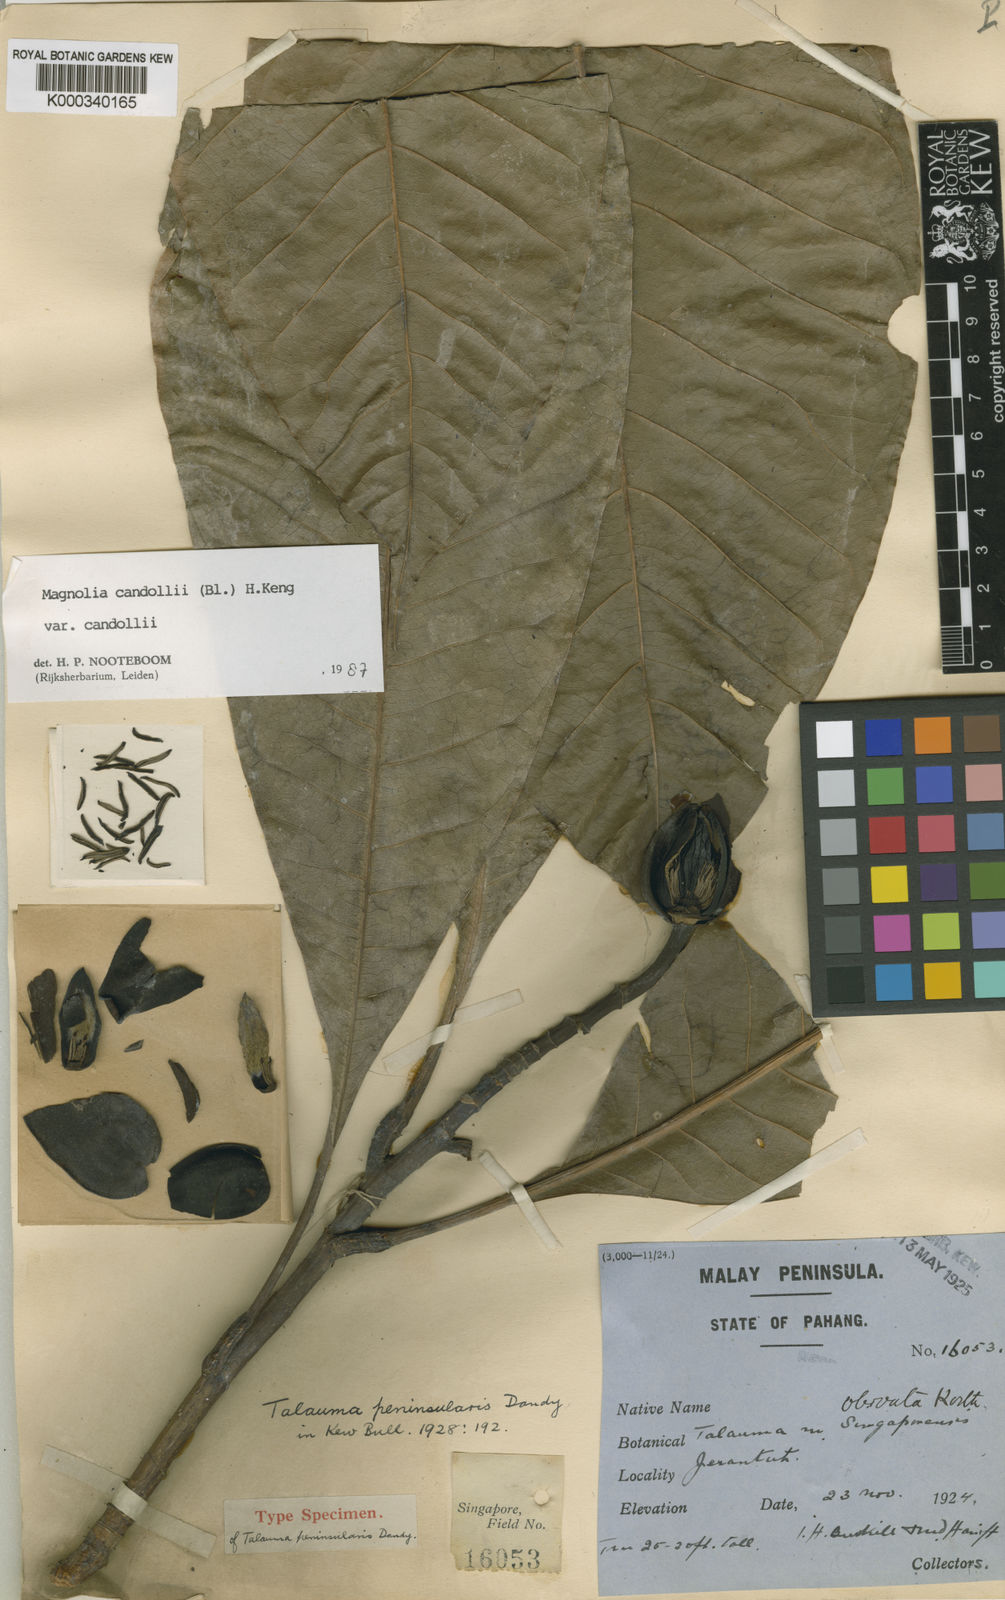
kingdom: Plantae
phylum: Tracheophyta
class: Magnoliopsida
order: Magnoliales
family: Magnoliaceae
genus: Magnolia
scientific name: Magnolia liliifera
